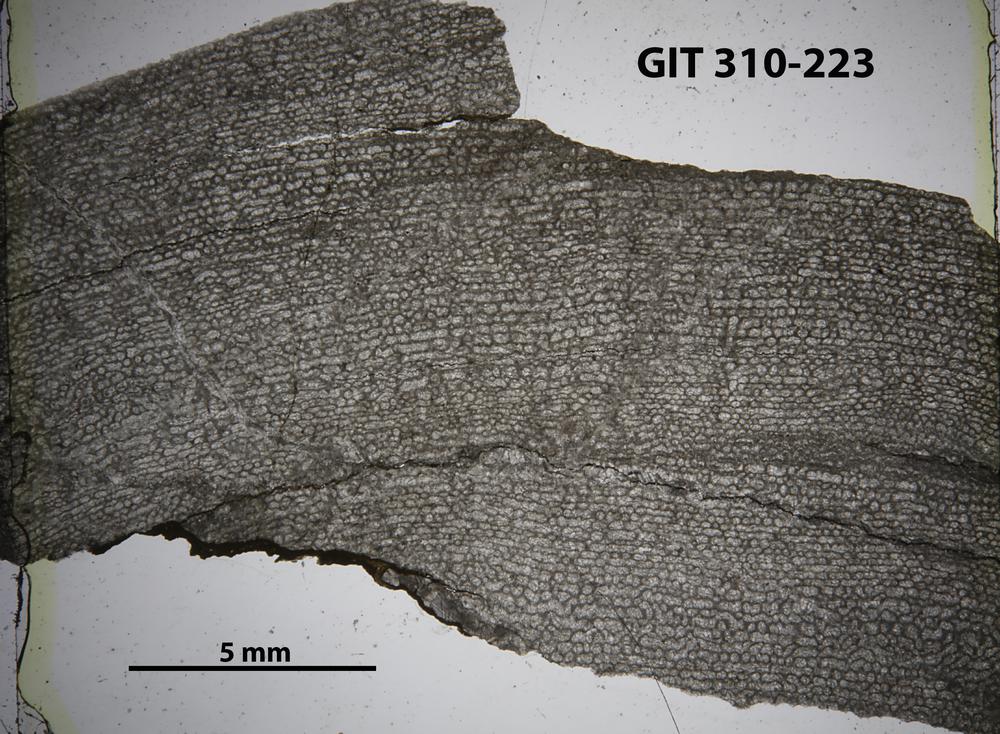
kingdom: Animalia
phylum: Porifera
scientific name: Porifera
